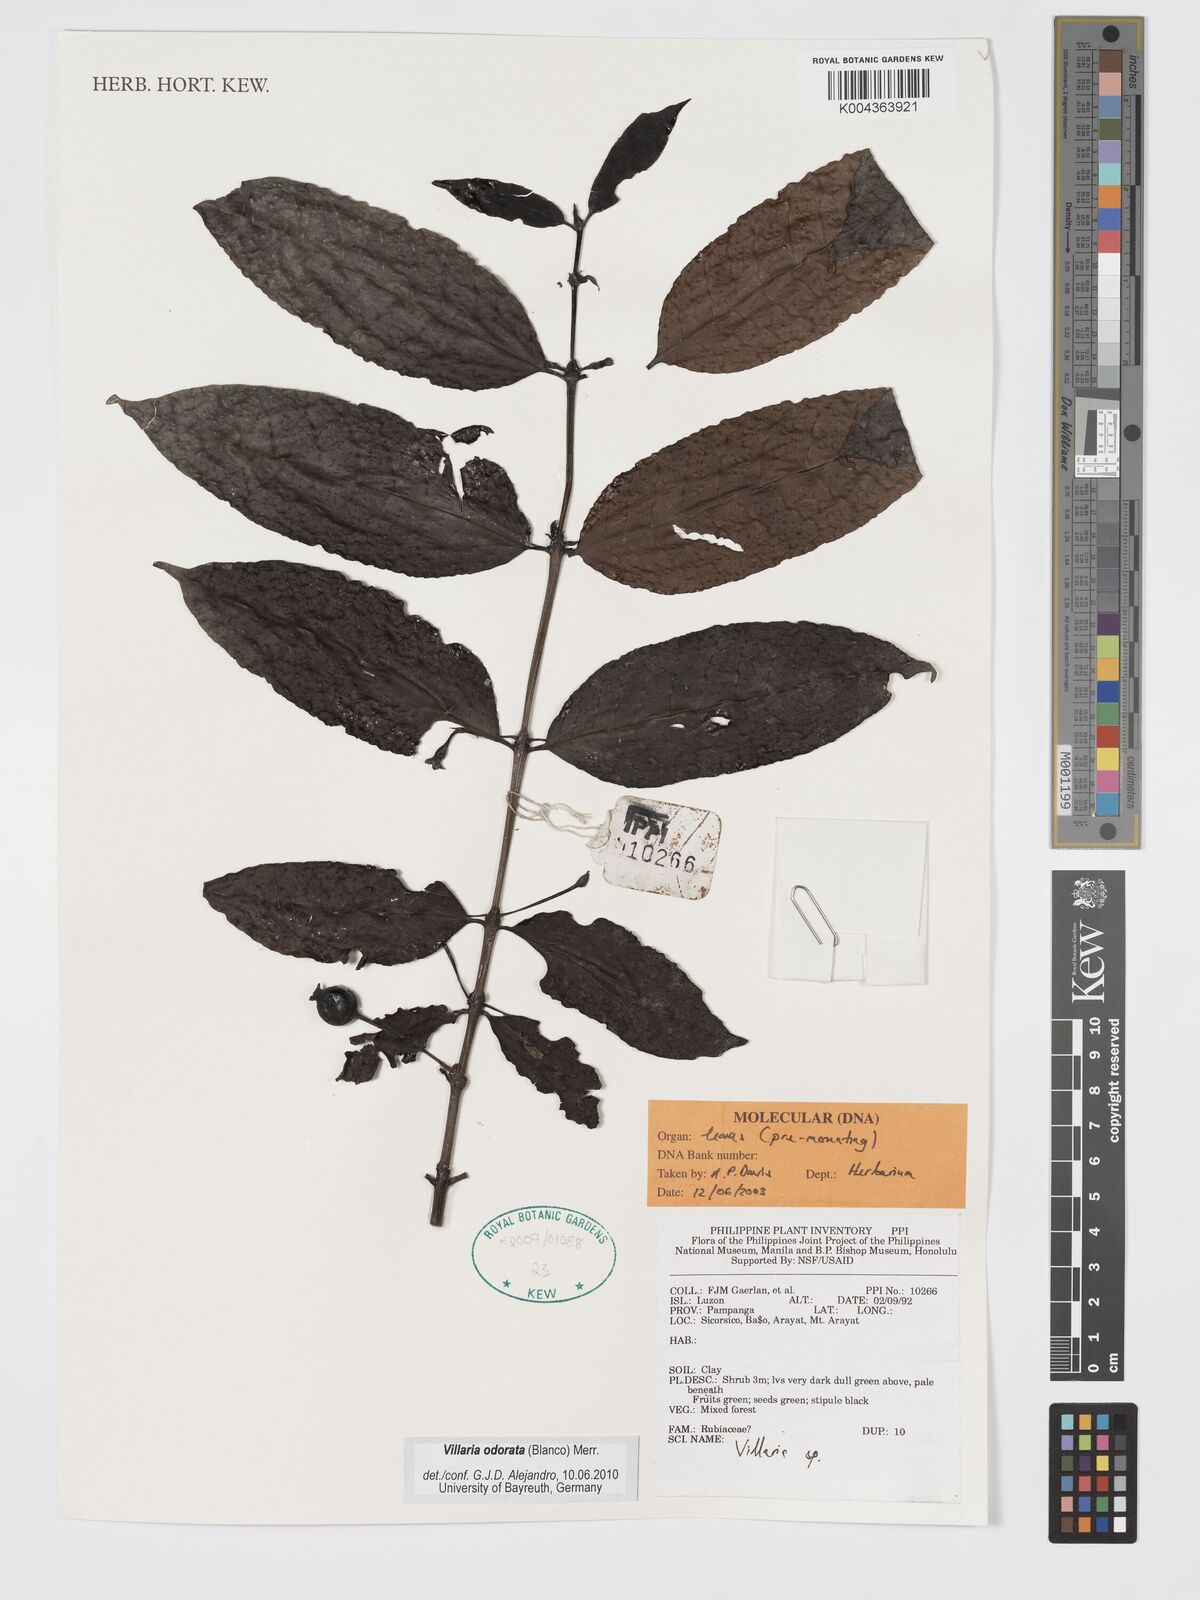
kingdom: Plantae
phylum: Tracheophyta
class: Magnoliopsida
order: Gentianales
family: Rubiaceae
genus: Villaria
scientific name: Villaria odorata
